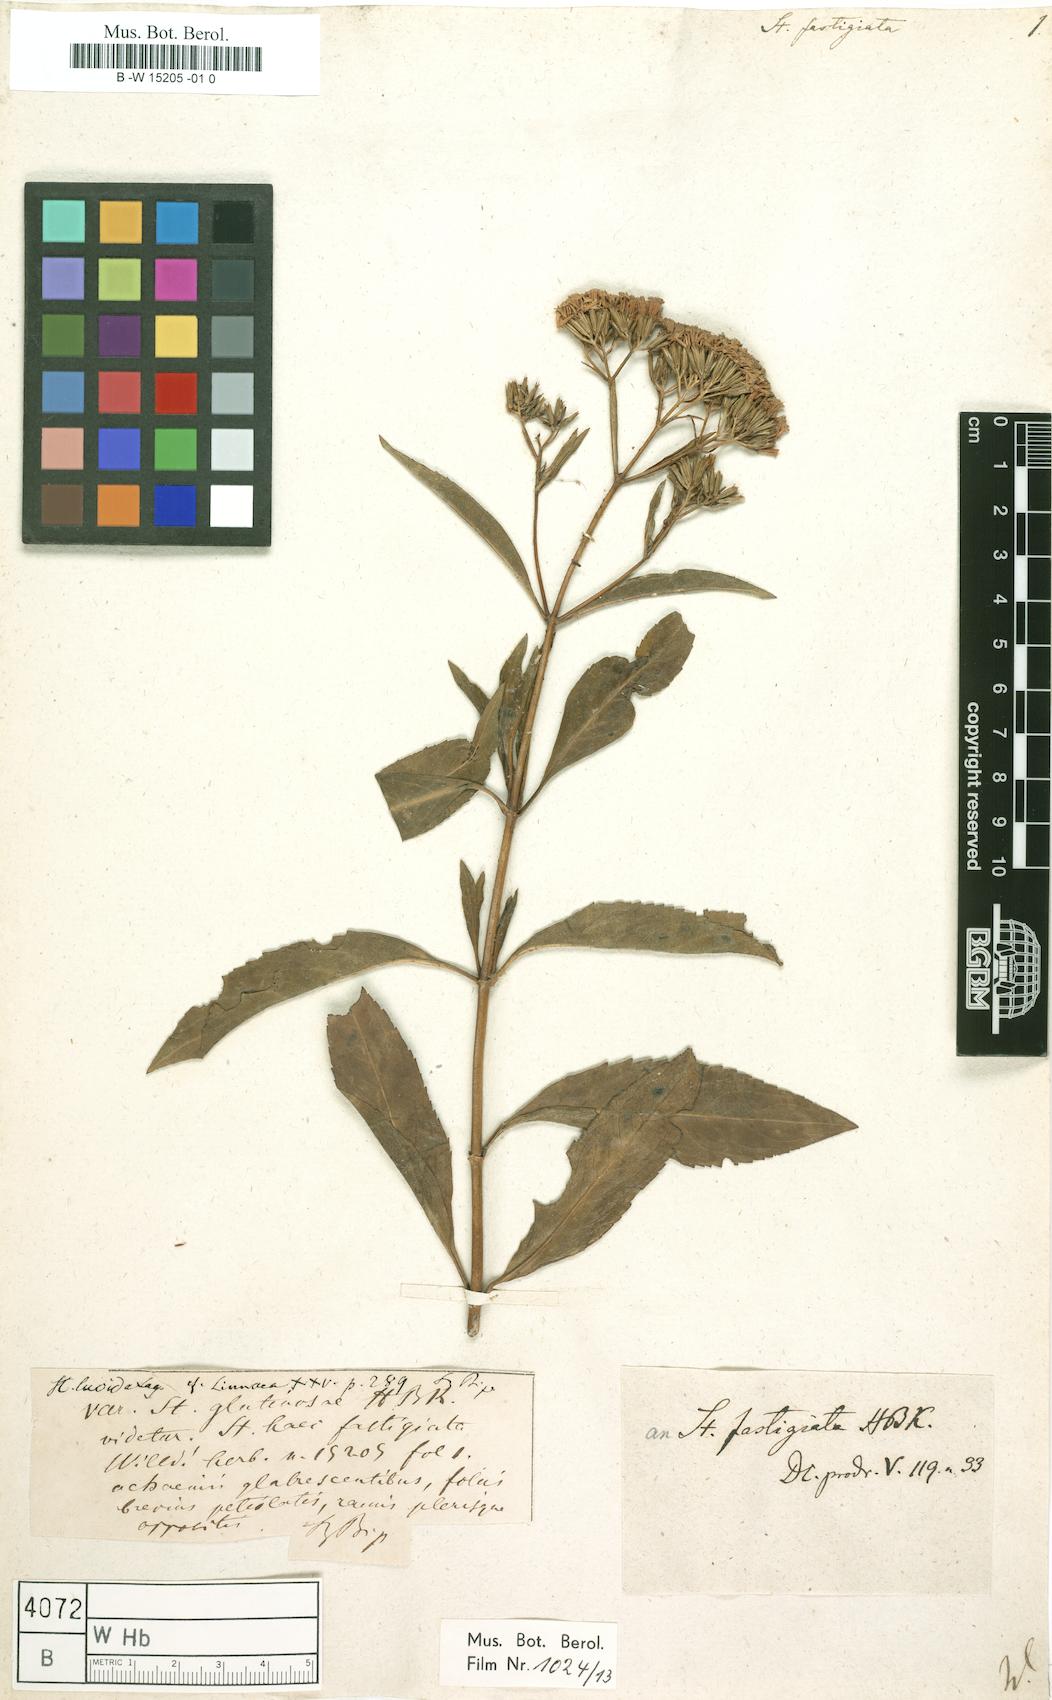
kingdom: Plantae
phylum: Tracheophyta
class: Magnoliopsida
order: Asterales
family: Asteraceae
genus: Stevia
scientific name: Stevia lucida
